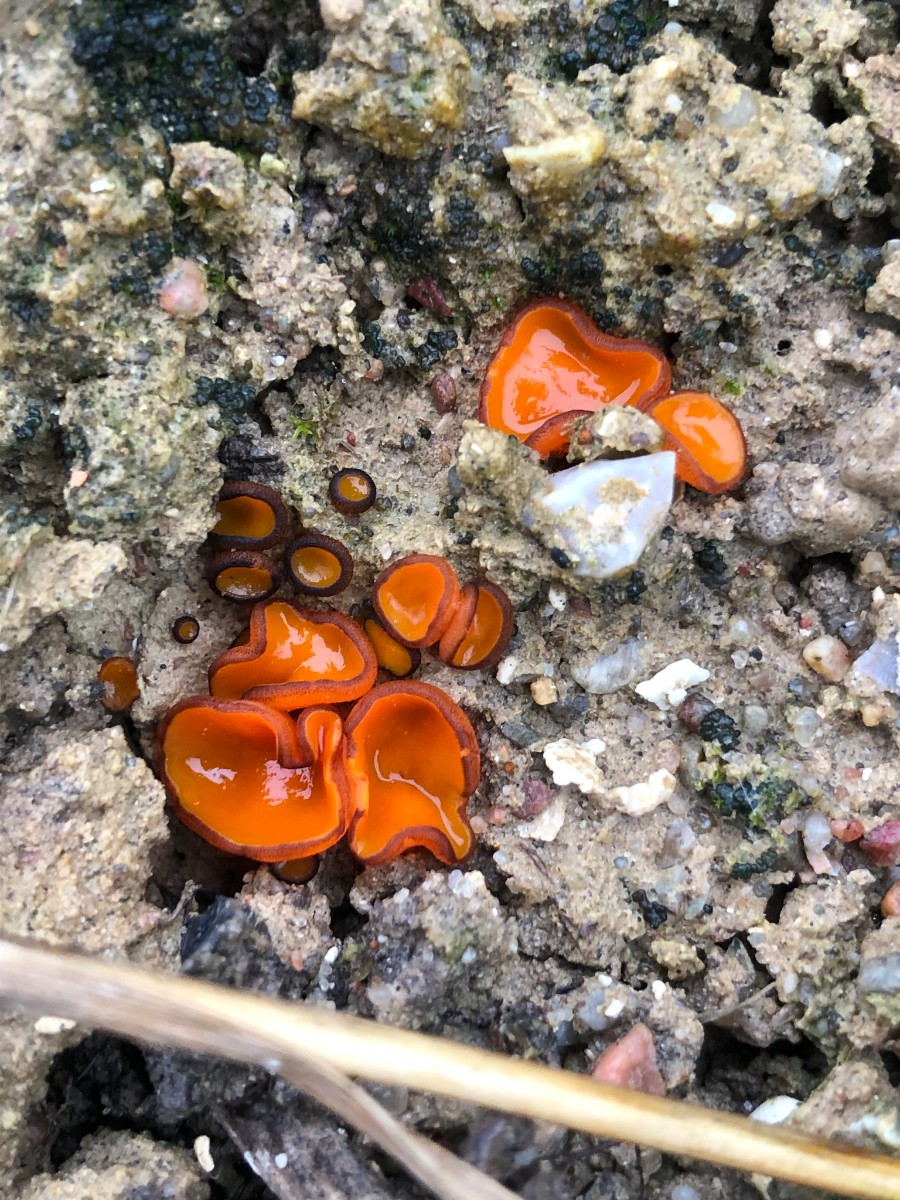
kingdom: Fungi
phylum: Ascomycota
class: Pezizomycetes
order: Pezizales
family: Pyronemataceae
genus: Melastiza
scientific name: Melastiza cornubiensis
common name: mørkrandet rødbæger
